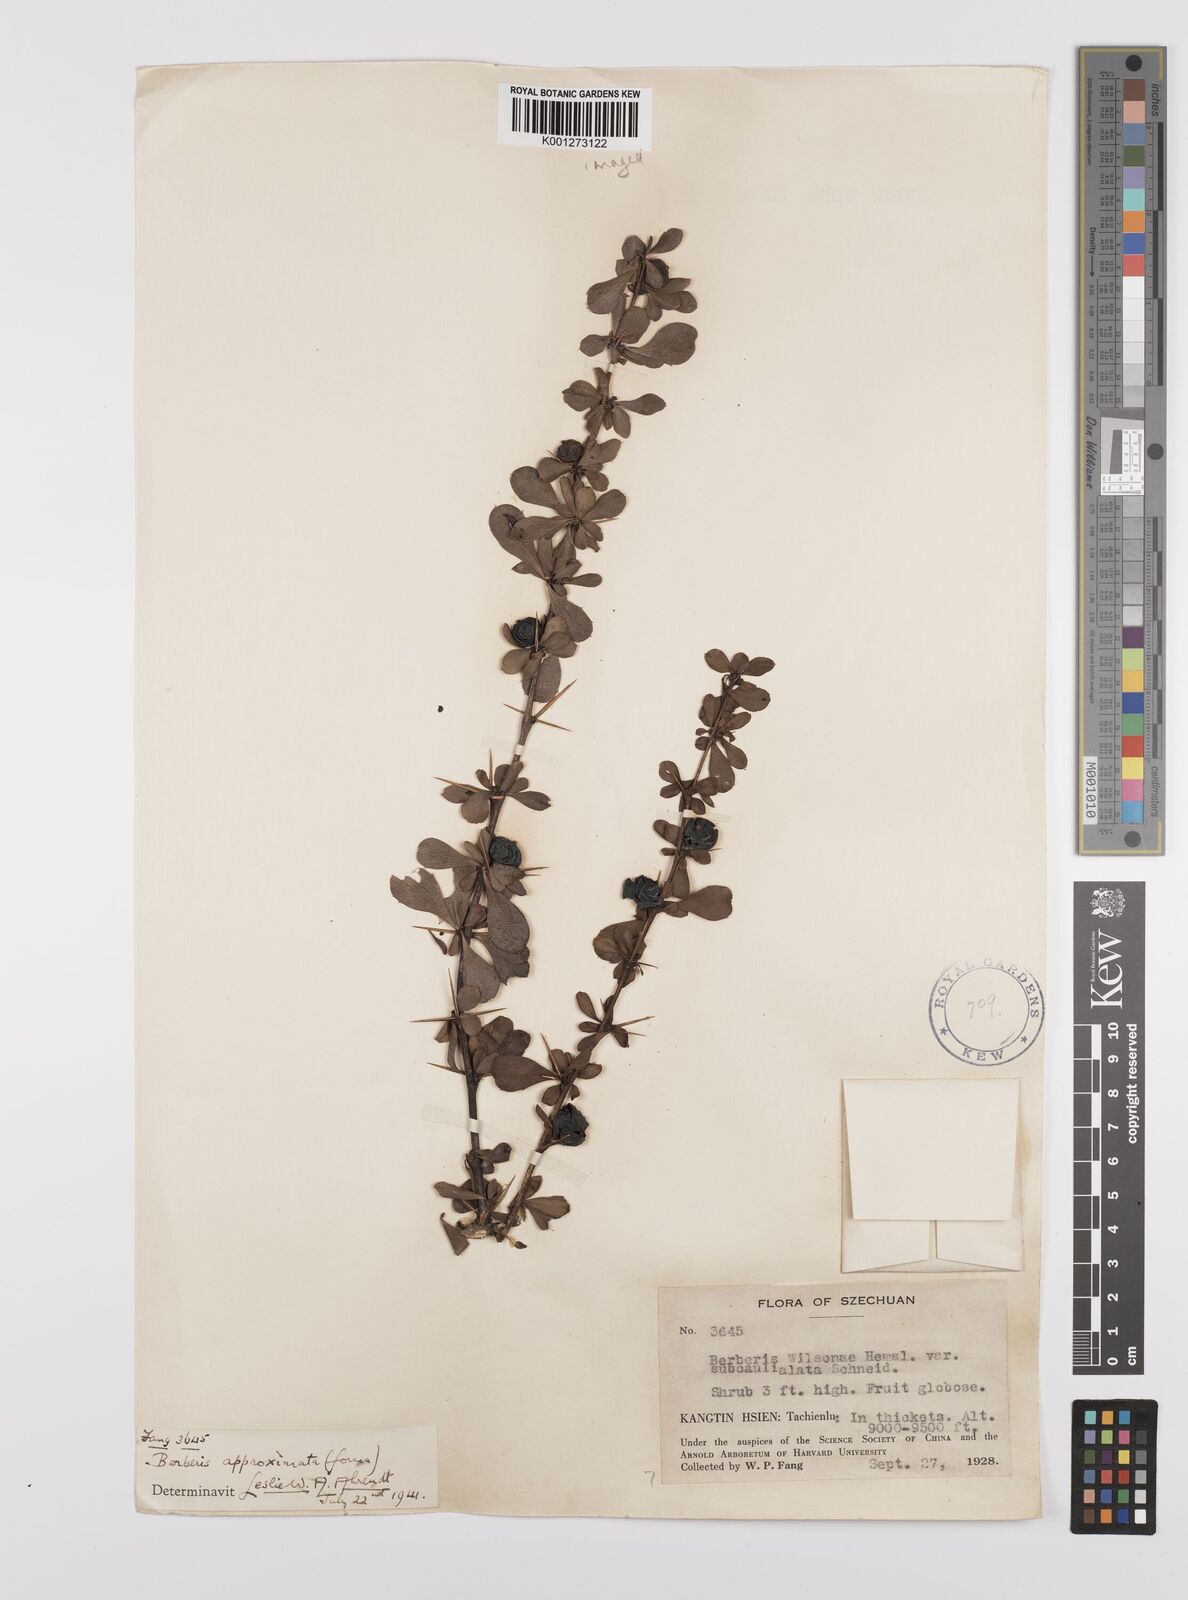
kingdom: Plantae
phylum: Tracheophyta
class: Magnoliopsida
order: Ranunculales
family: Berberidaceae
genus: Berberis
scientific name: Berberis dictyophylla
